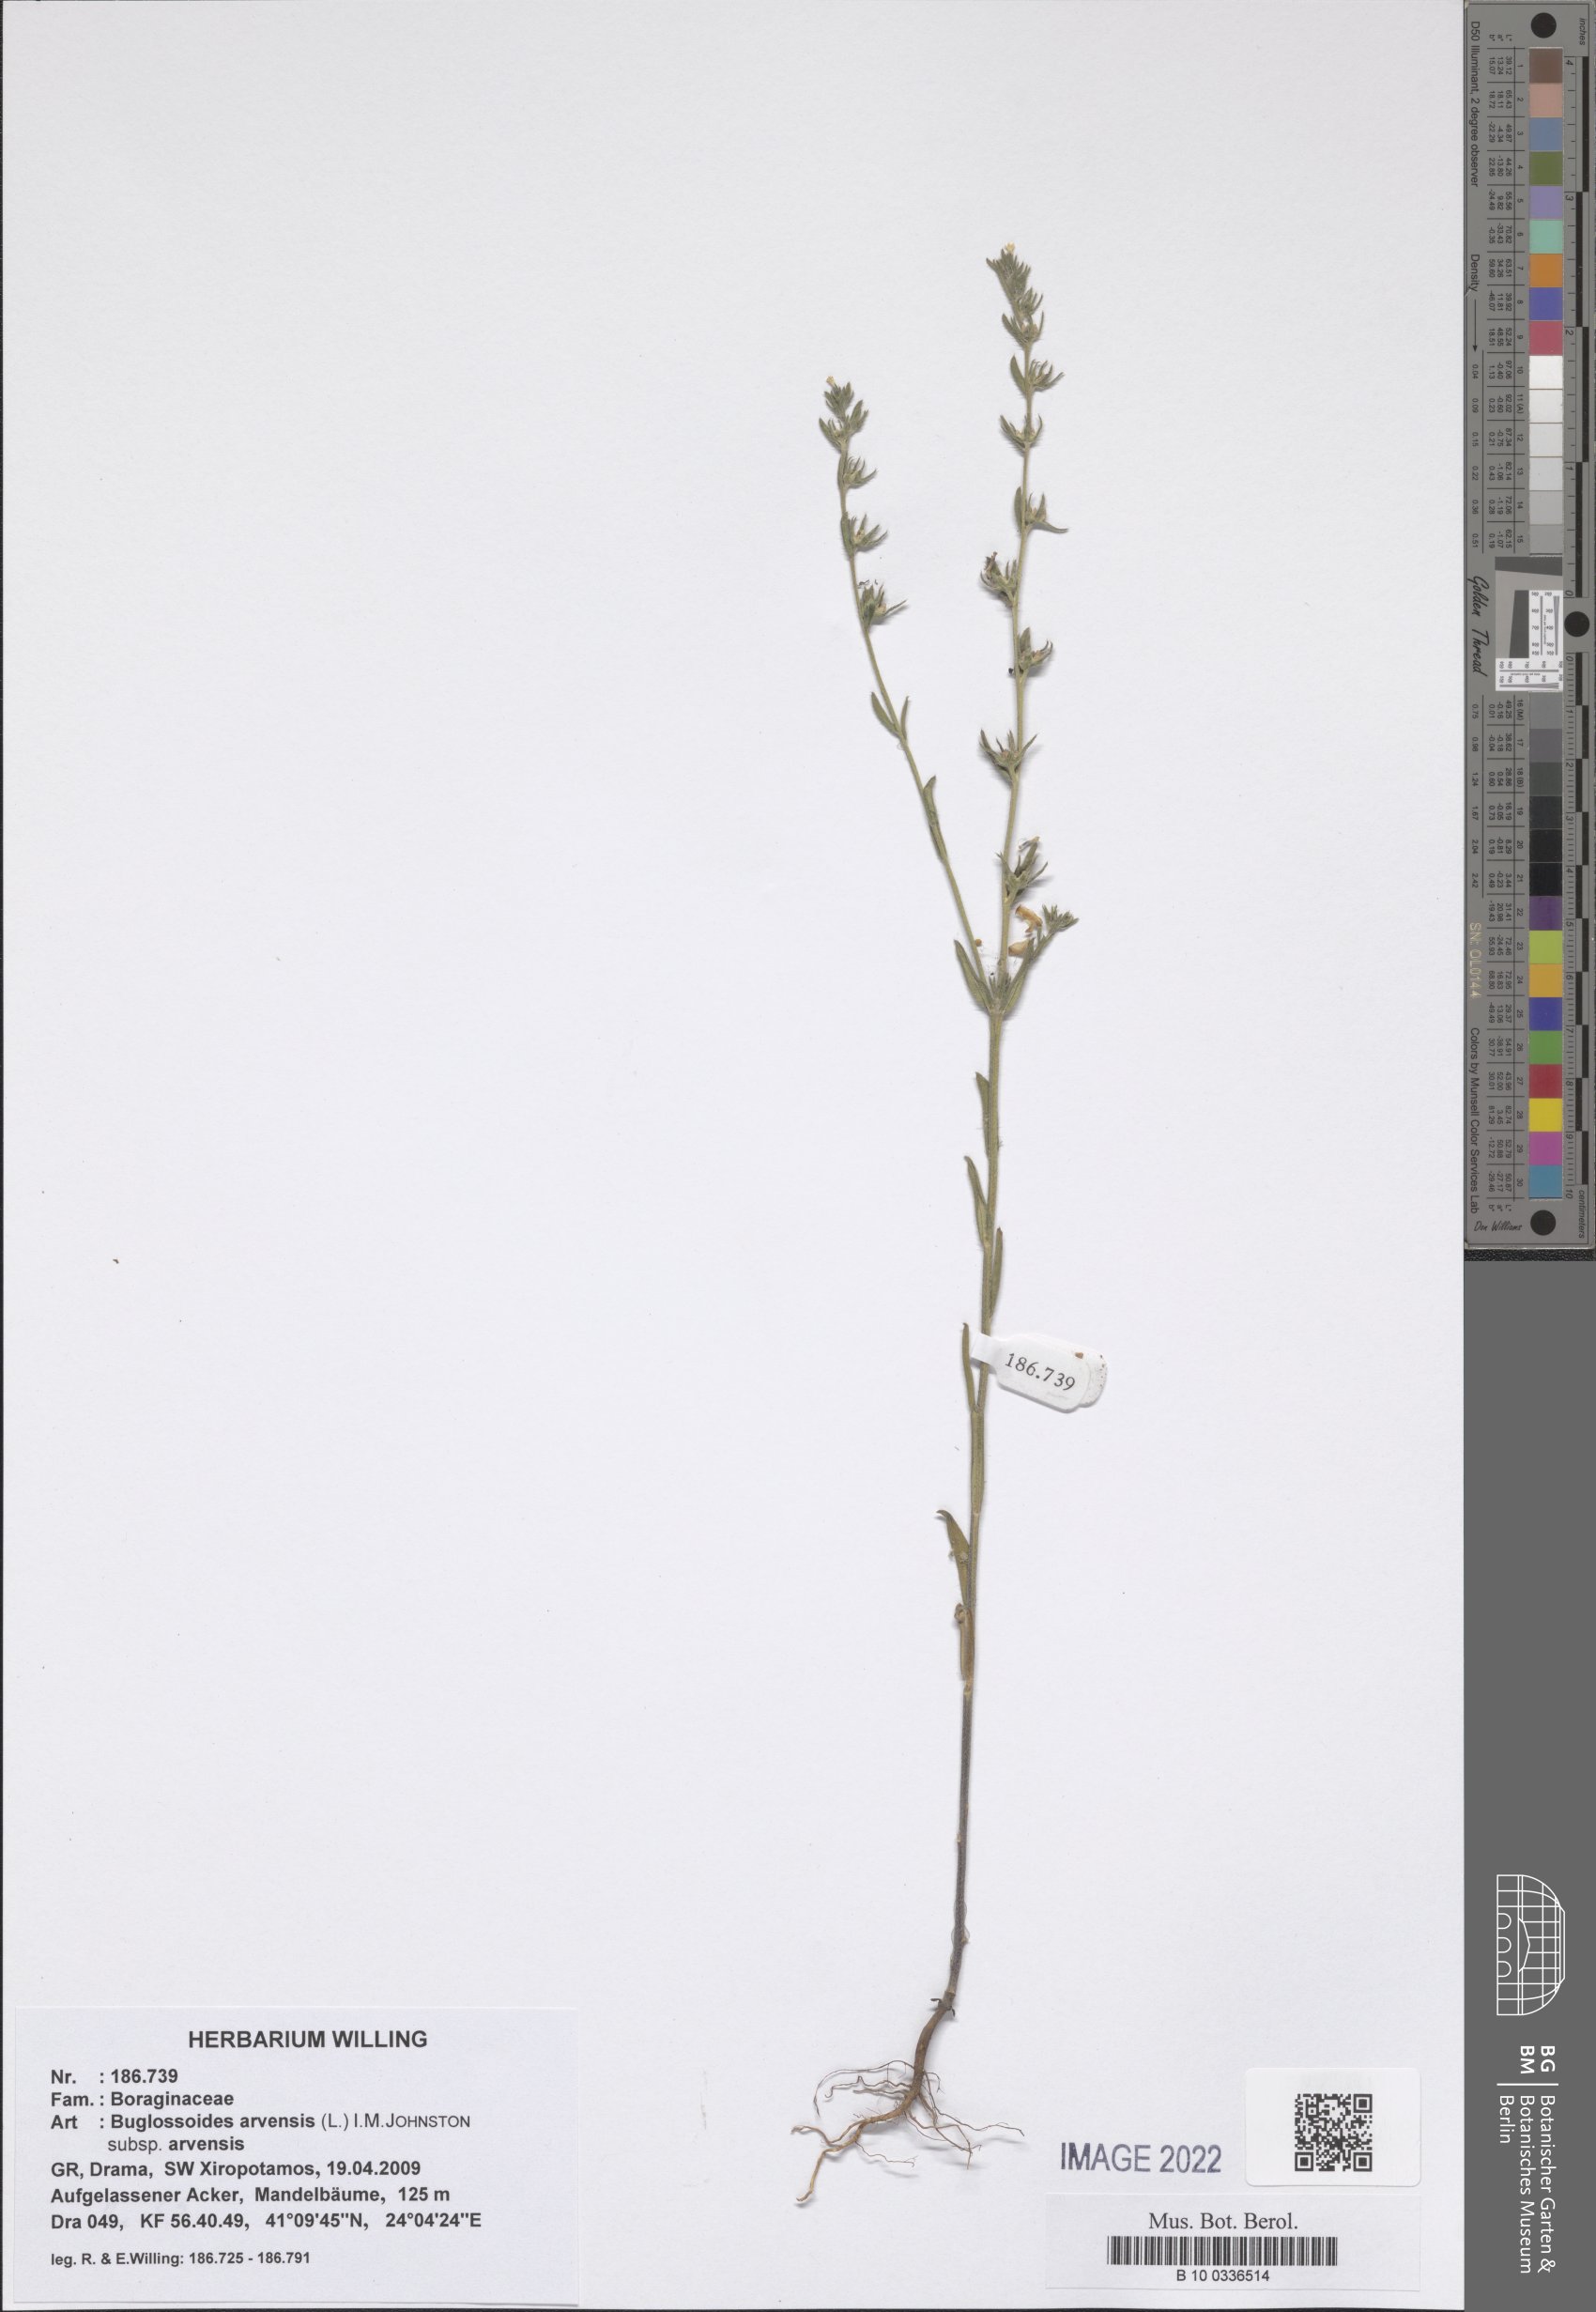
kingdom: Plantae
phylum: Tracheophyta
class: Magnoliopsida
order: Boraginales
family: Boraginaceae
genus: Buglossoides
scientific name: Buglossoides arvensis
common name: Corn gromwell
